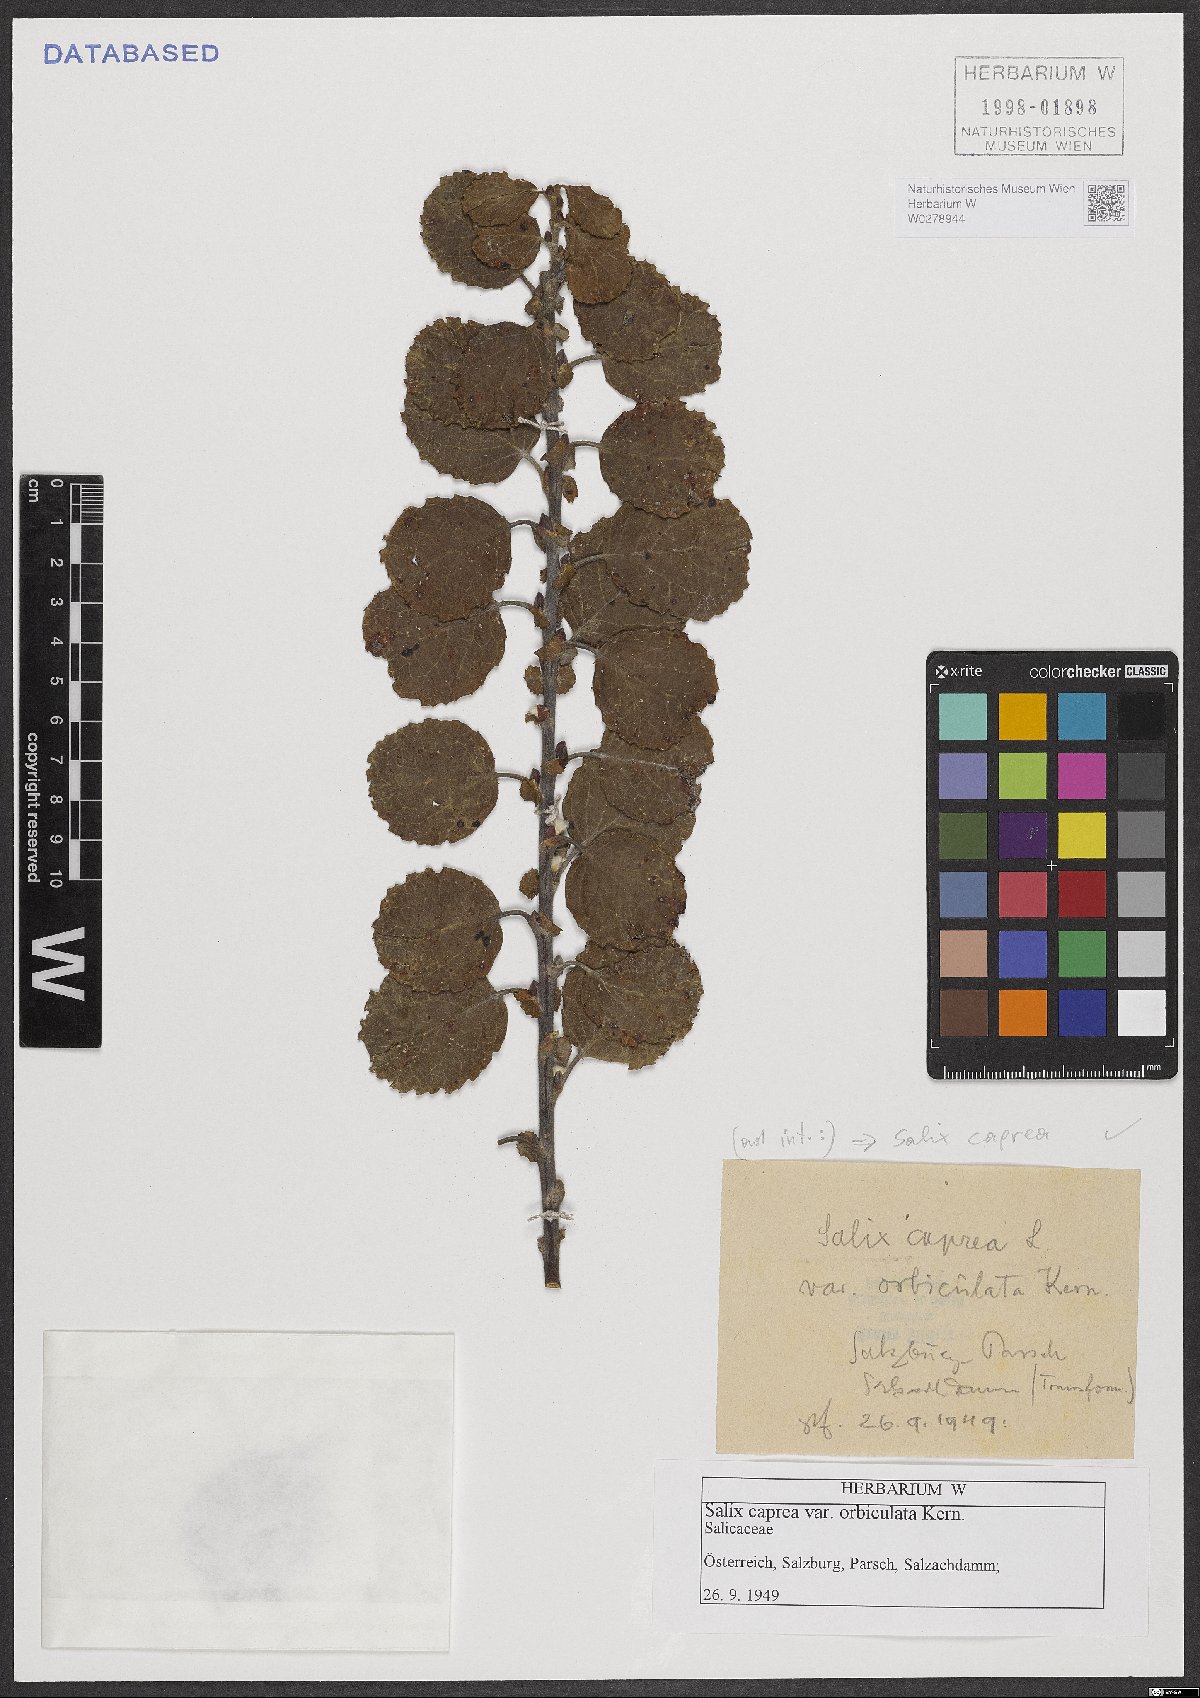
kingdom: Plantae
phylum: Tracheophyta
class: Magnoliopsida
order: Malpighiales
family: Salicaceae
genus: Salix
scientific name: Salix caprea
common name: Goat willow
